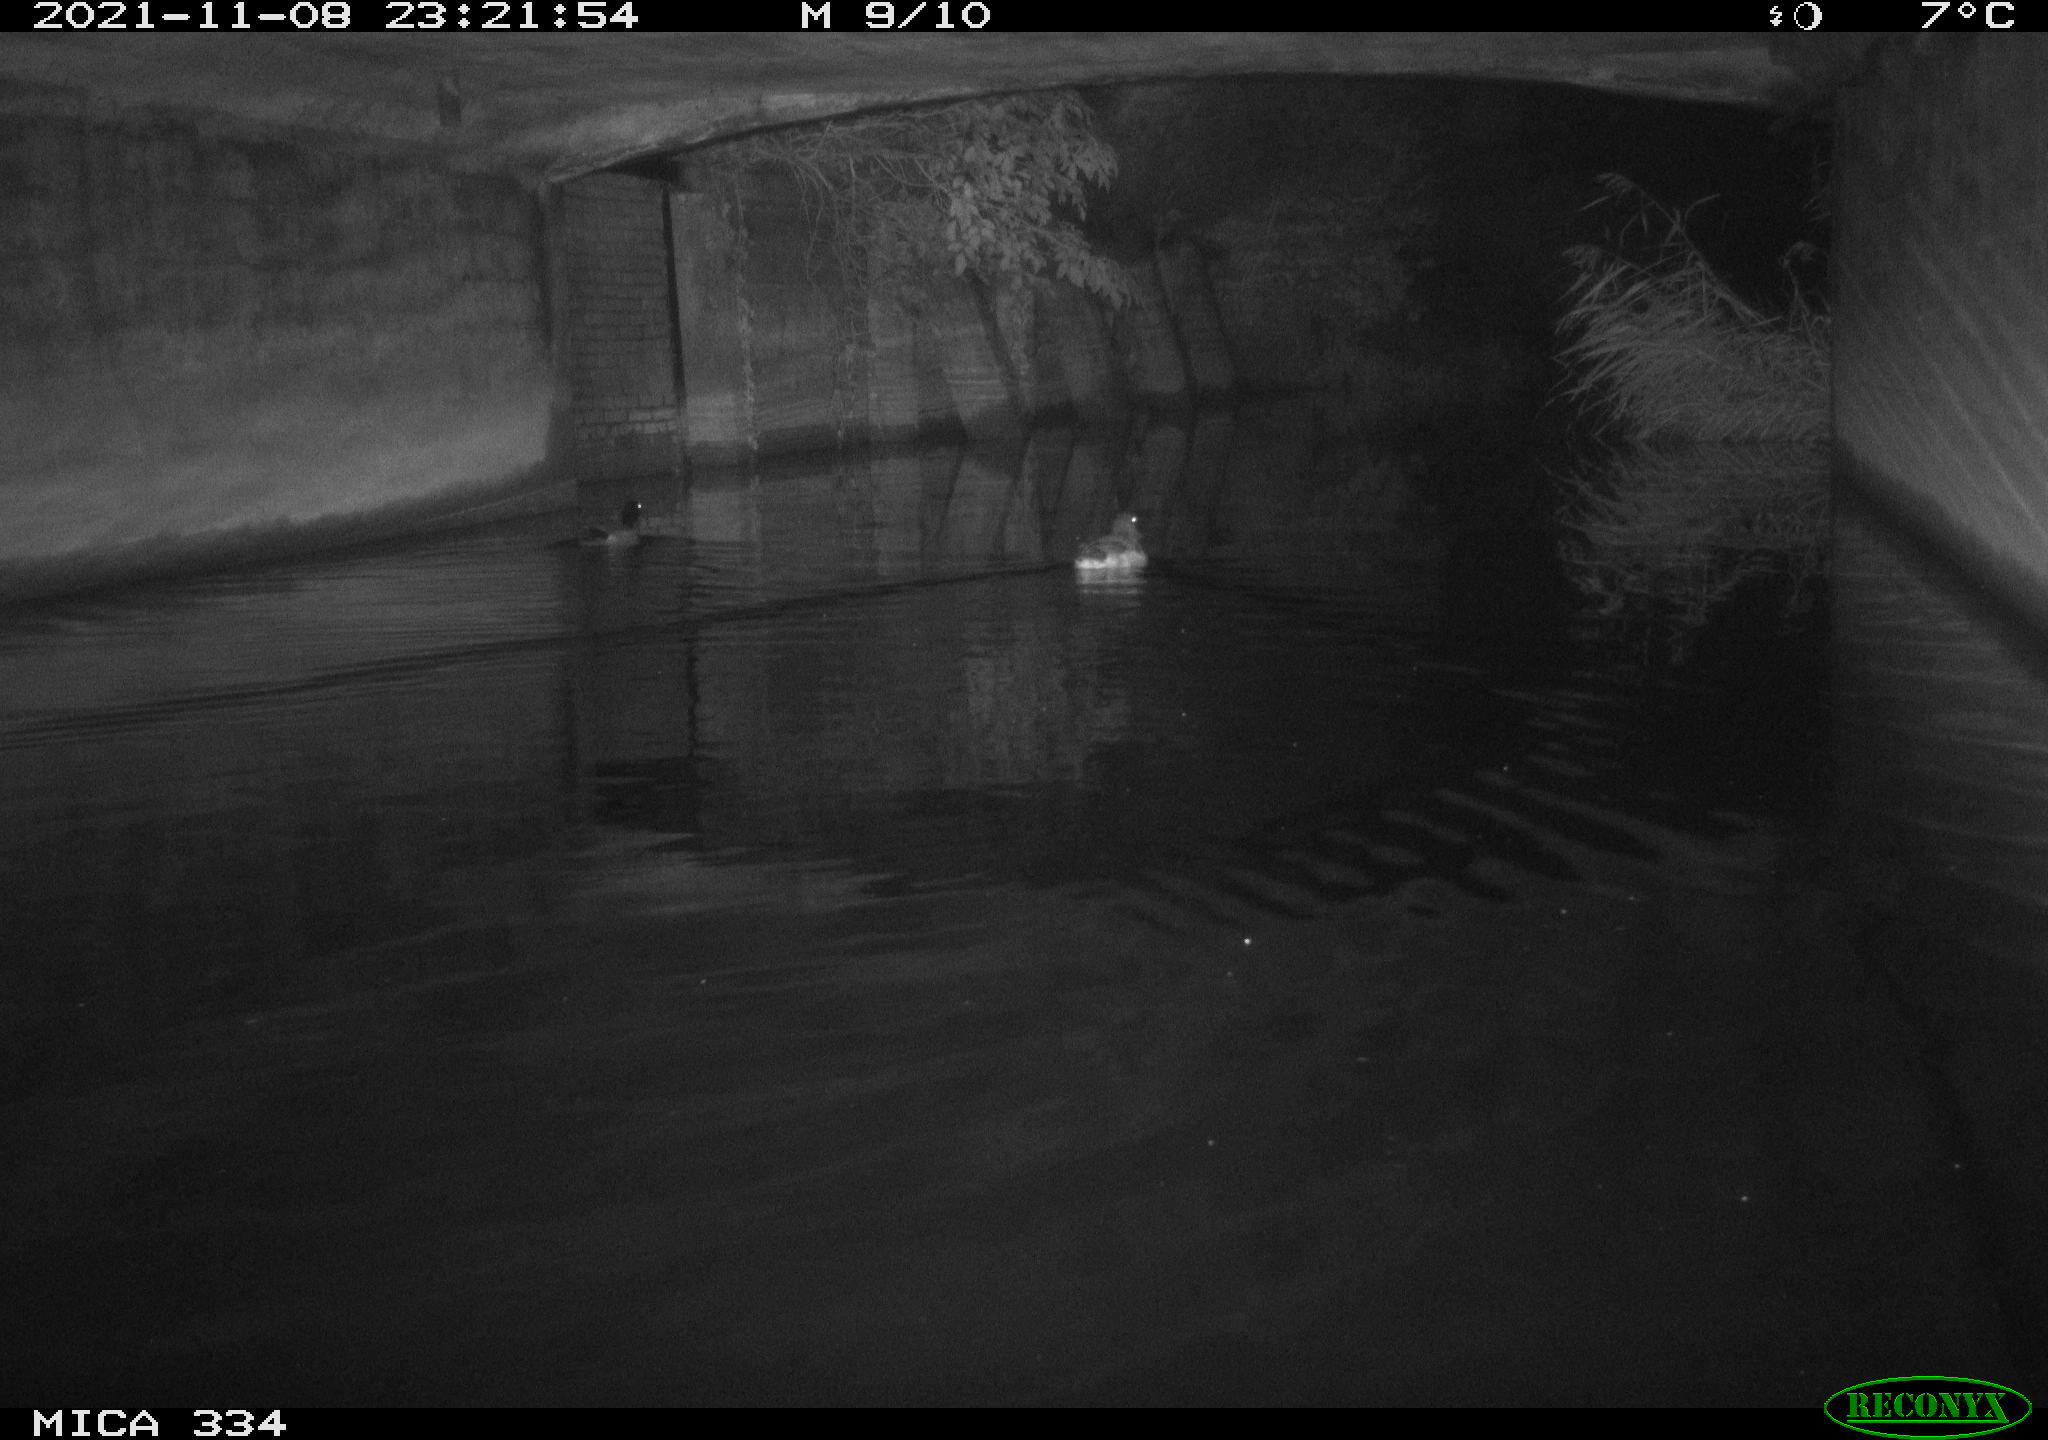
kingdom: Animalia
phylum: Chordata
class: Aves
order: Anseriformes
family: Anatidae
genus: Anas
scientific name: Anas platyrhynchos
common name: Mallard
